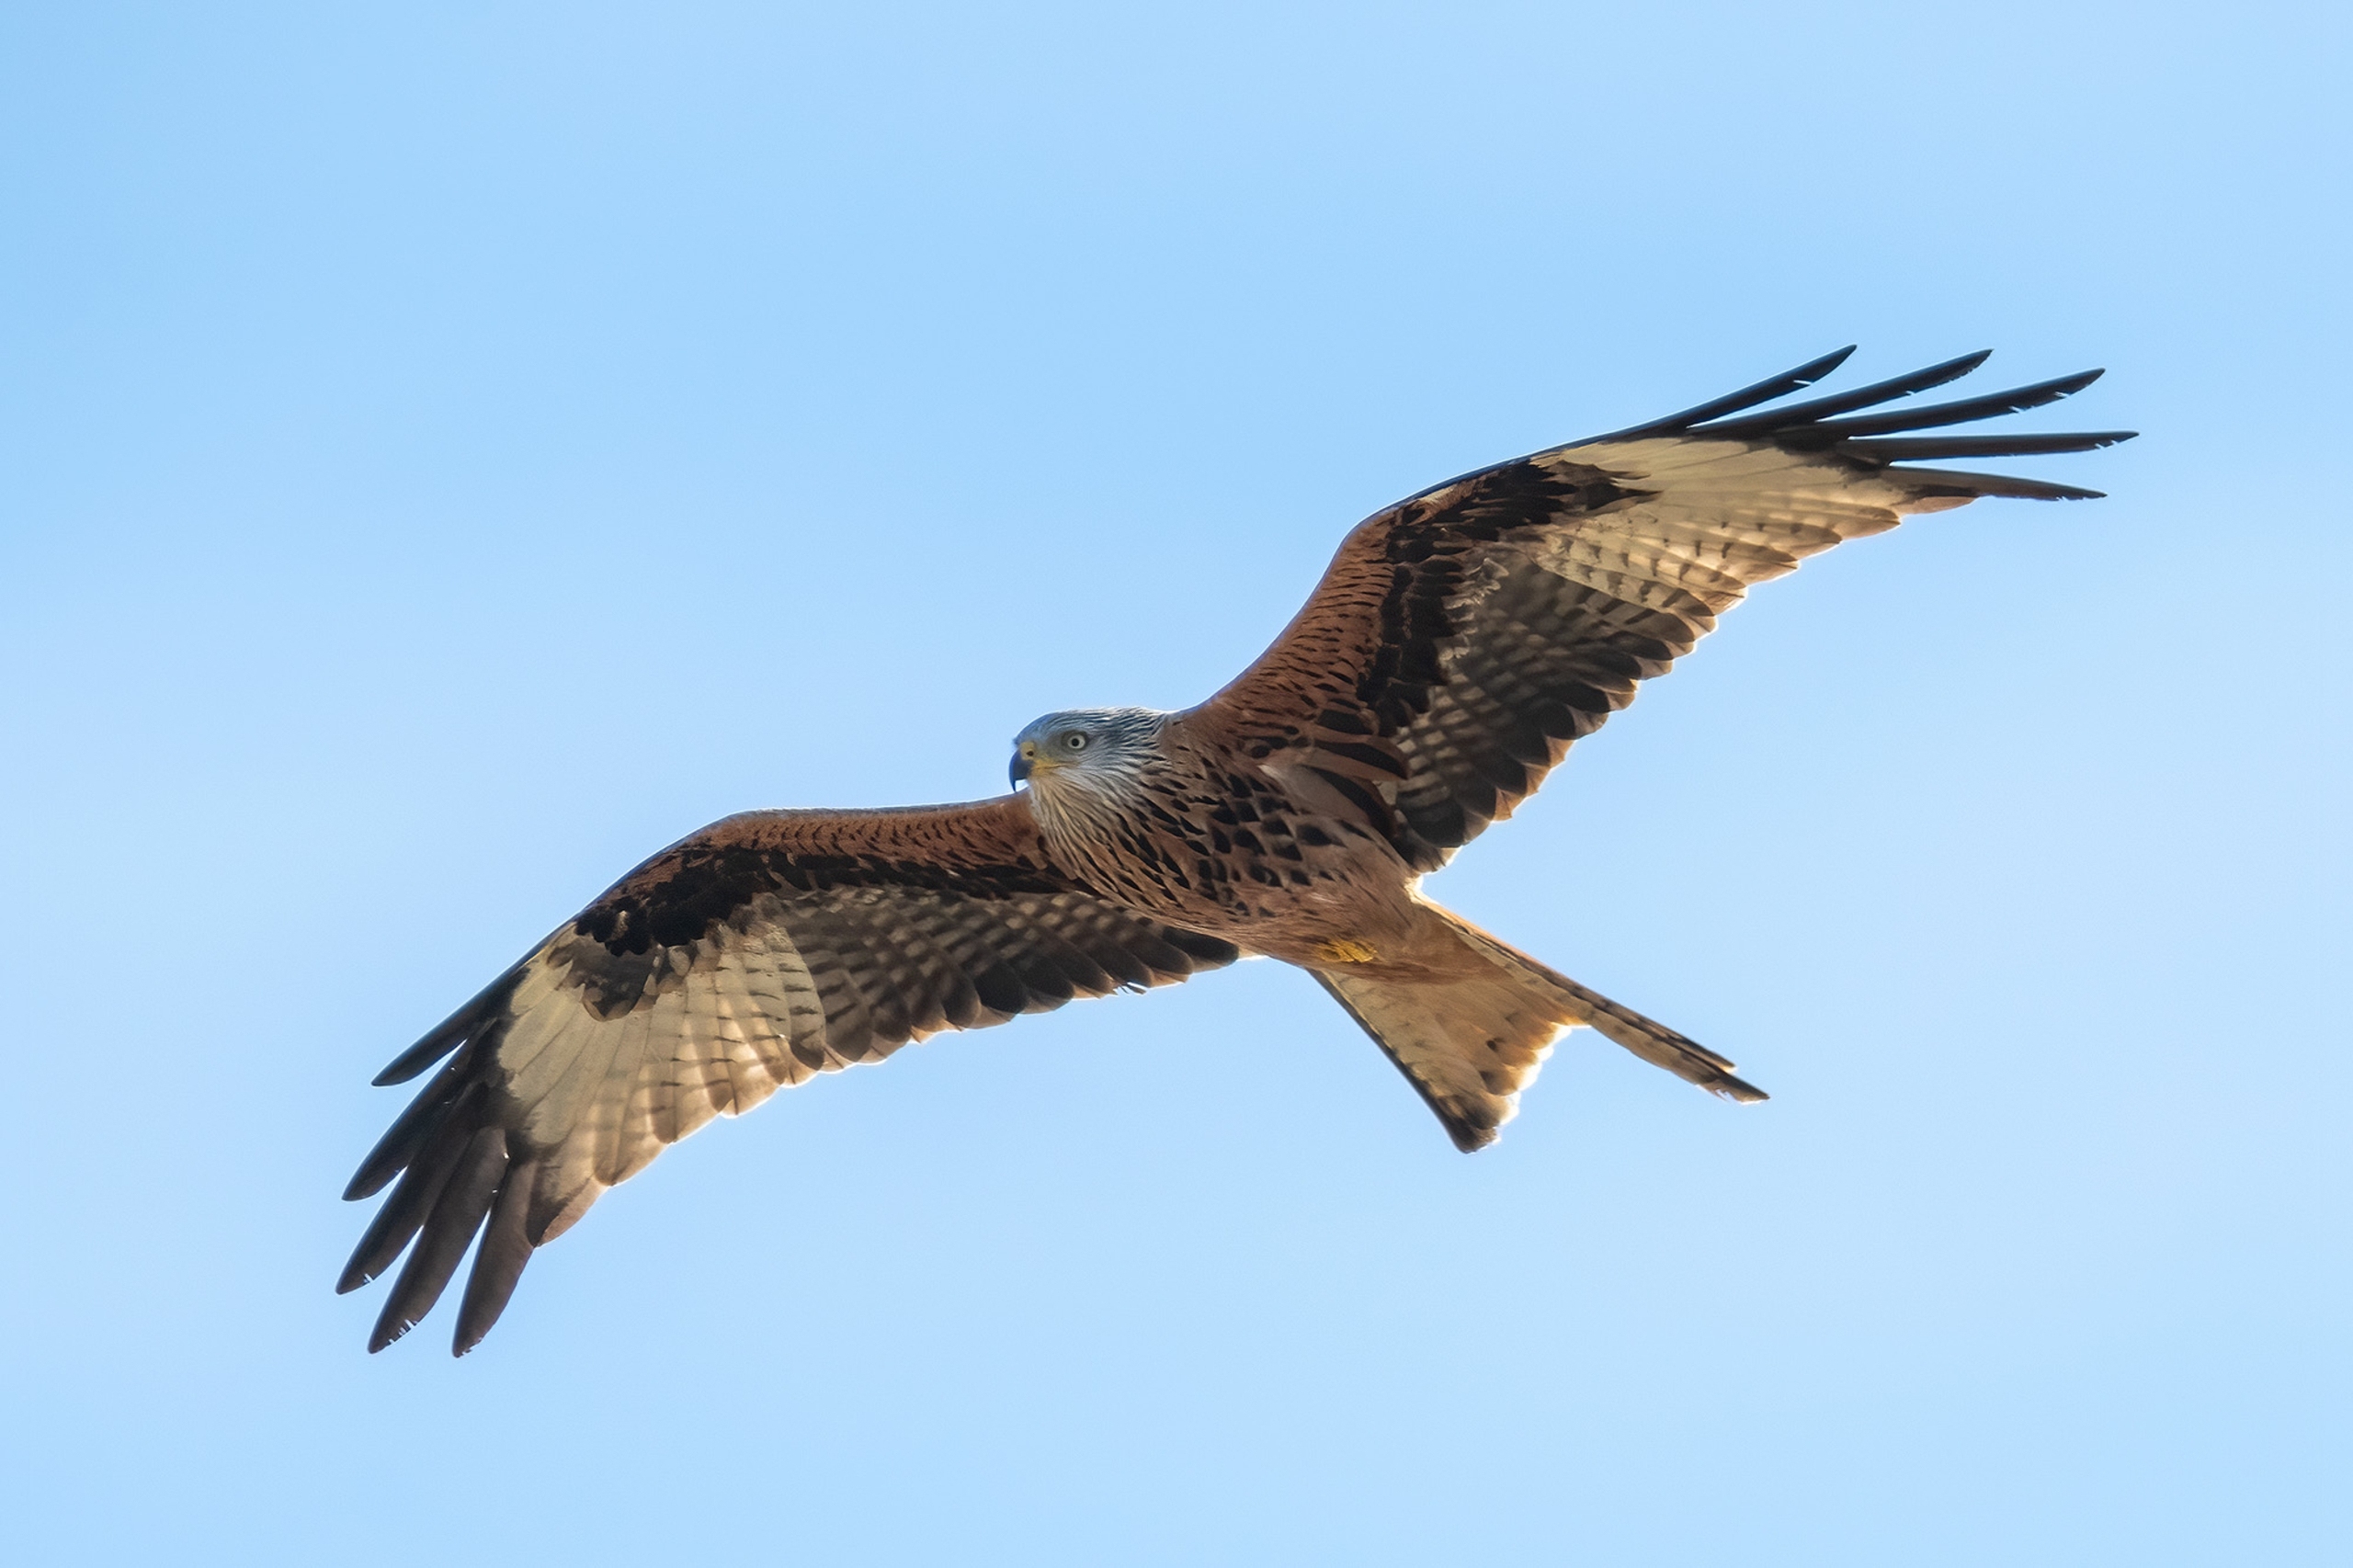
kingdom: Animalia
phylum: Chordata
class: Aves
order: Accipitriformes
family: Accipitridae
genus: Milvus
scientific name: Milvus milvus
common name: Rød glente
